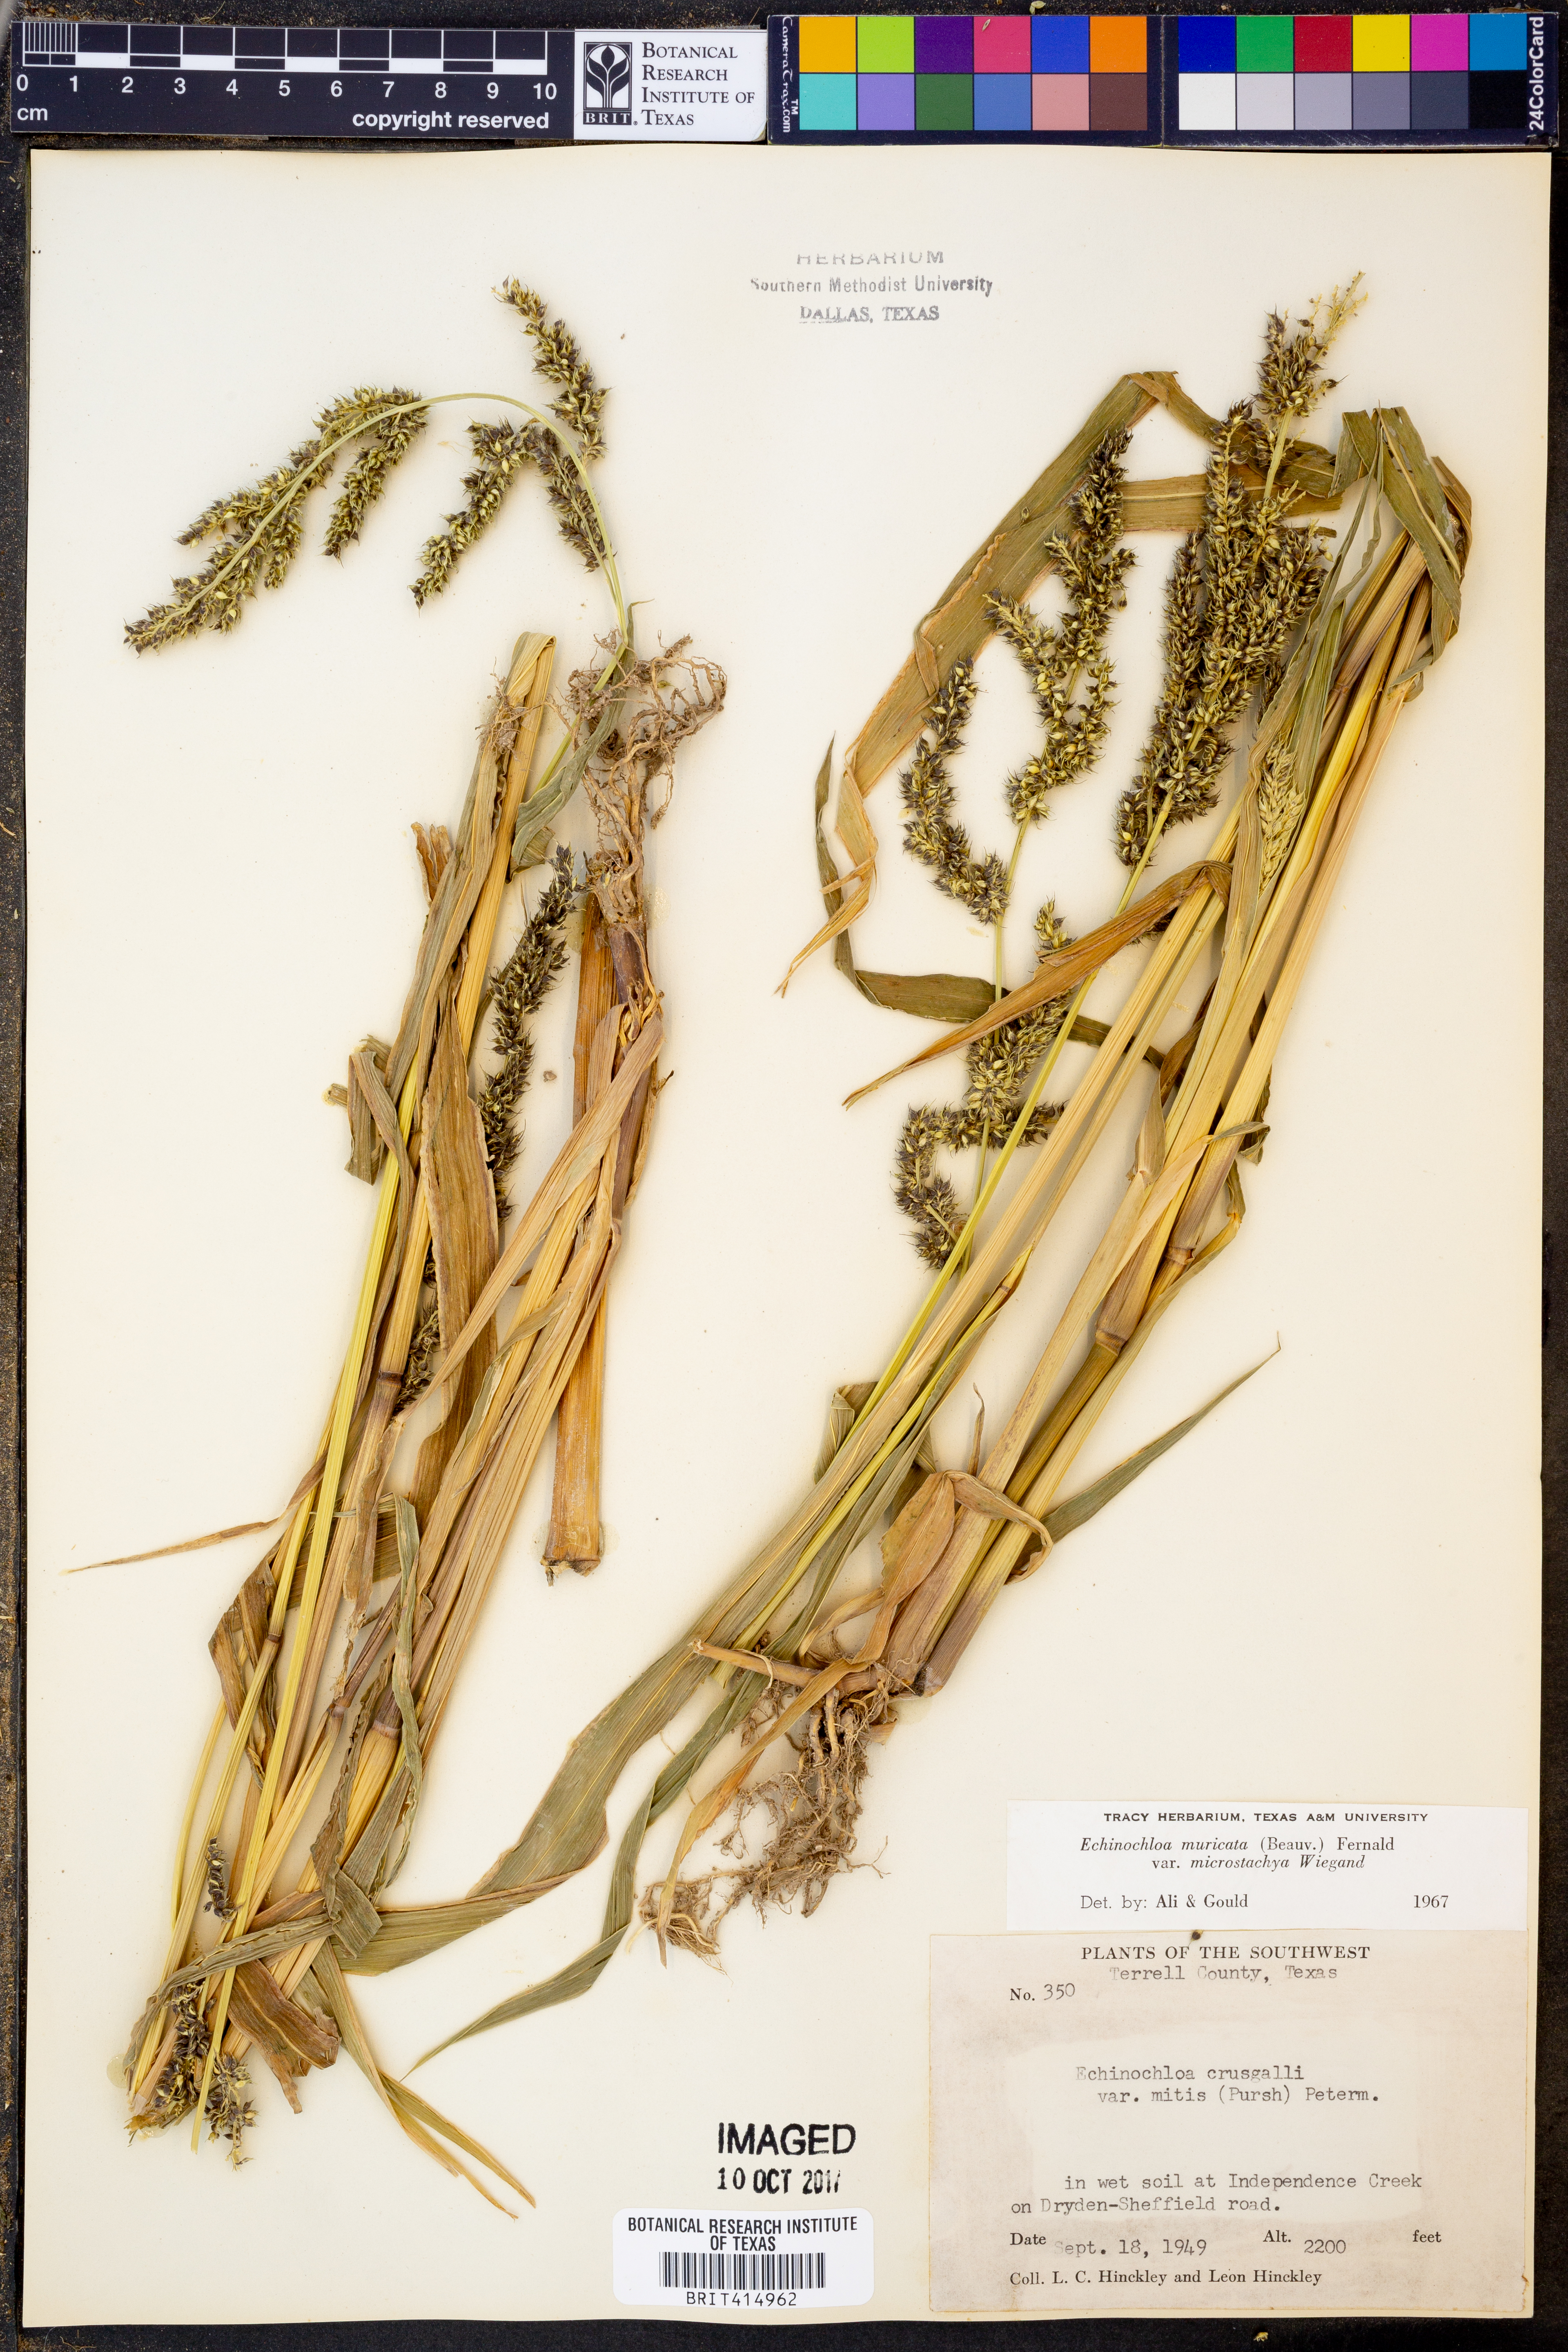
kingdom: Plantae
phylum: Tracheophyta
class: Liliopsida
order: Poales
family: Poaceae
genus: Echinochloa
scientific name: Echinochloa muricata
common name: American barnyard grass
